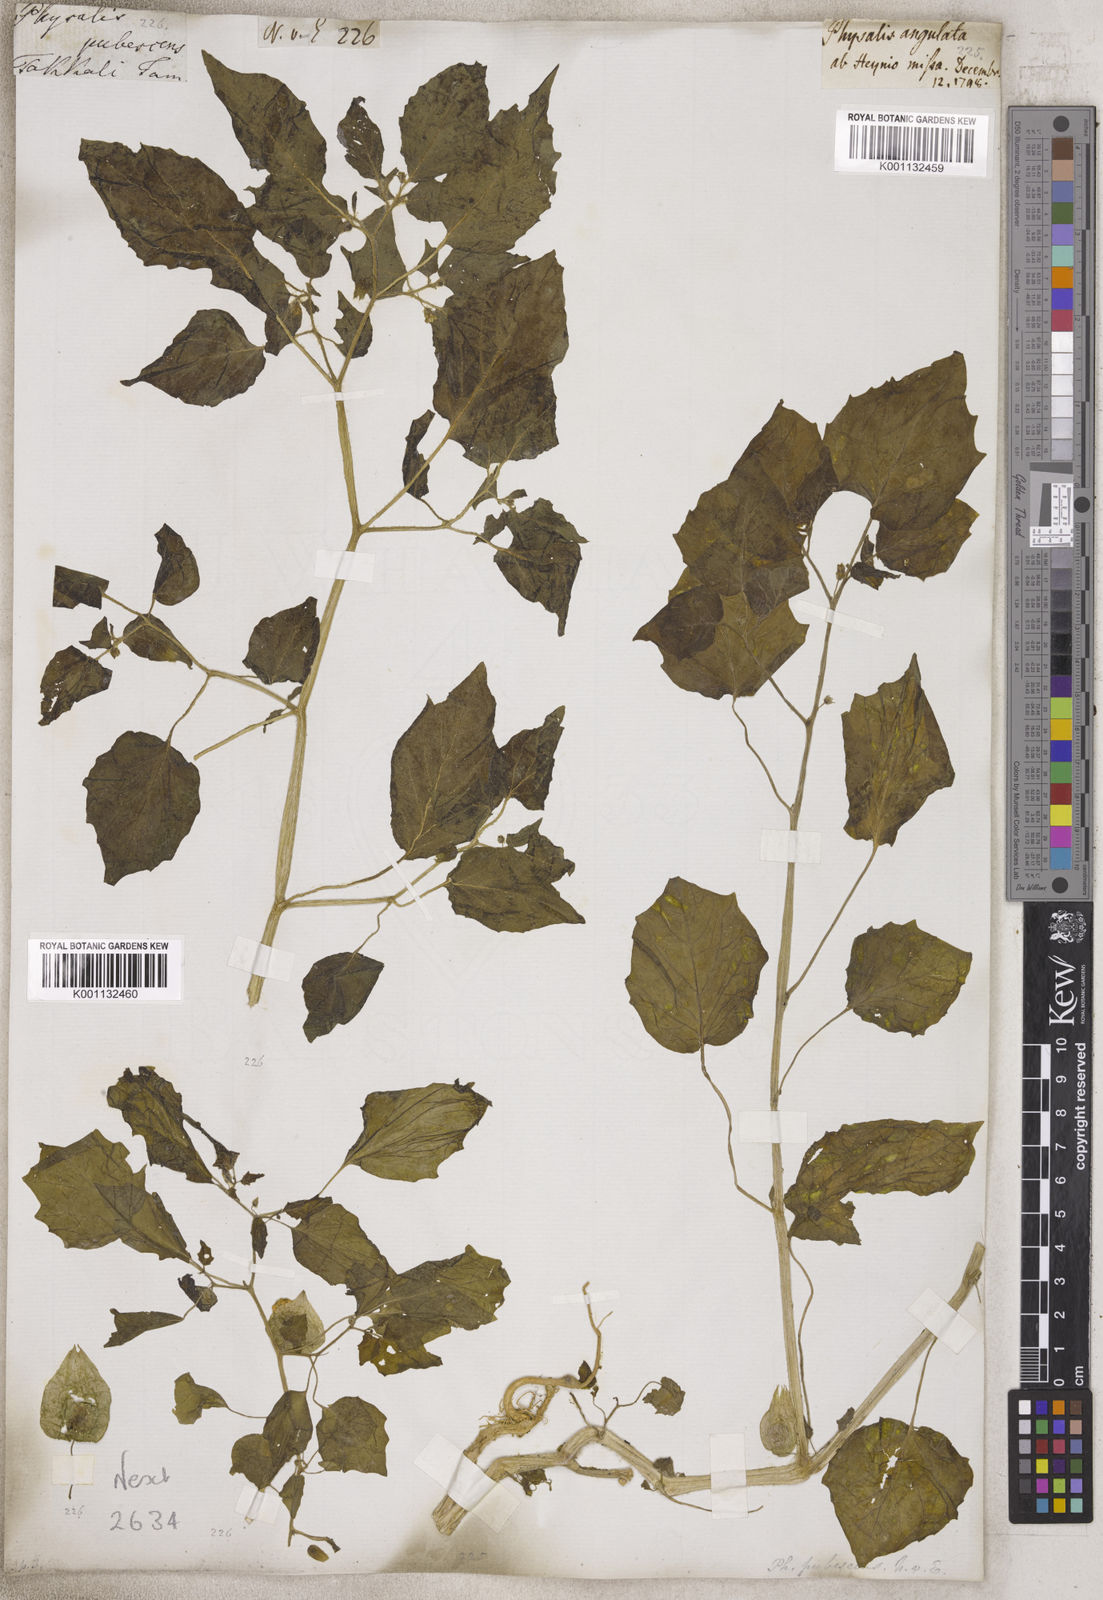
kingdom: Plantae
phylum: Tracheophyta
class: Magnoliopsida
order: Solanales
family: Solanaceae
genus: Physalis
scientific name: Physalis
